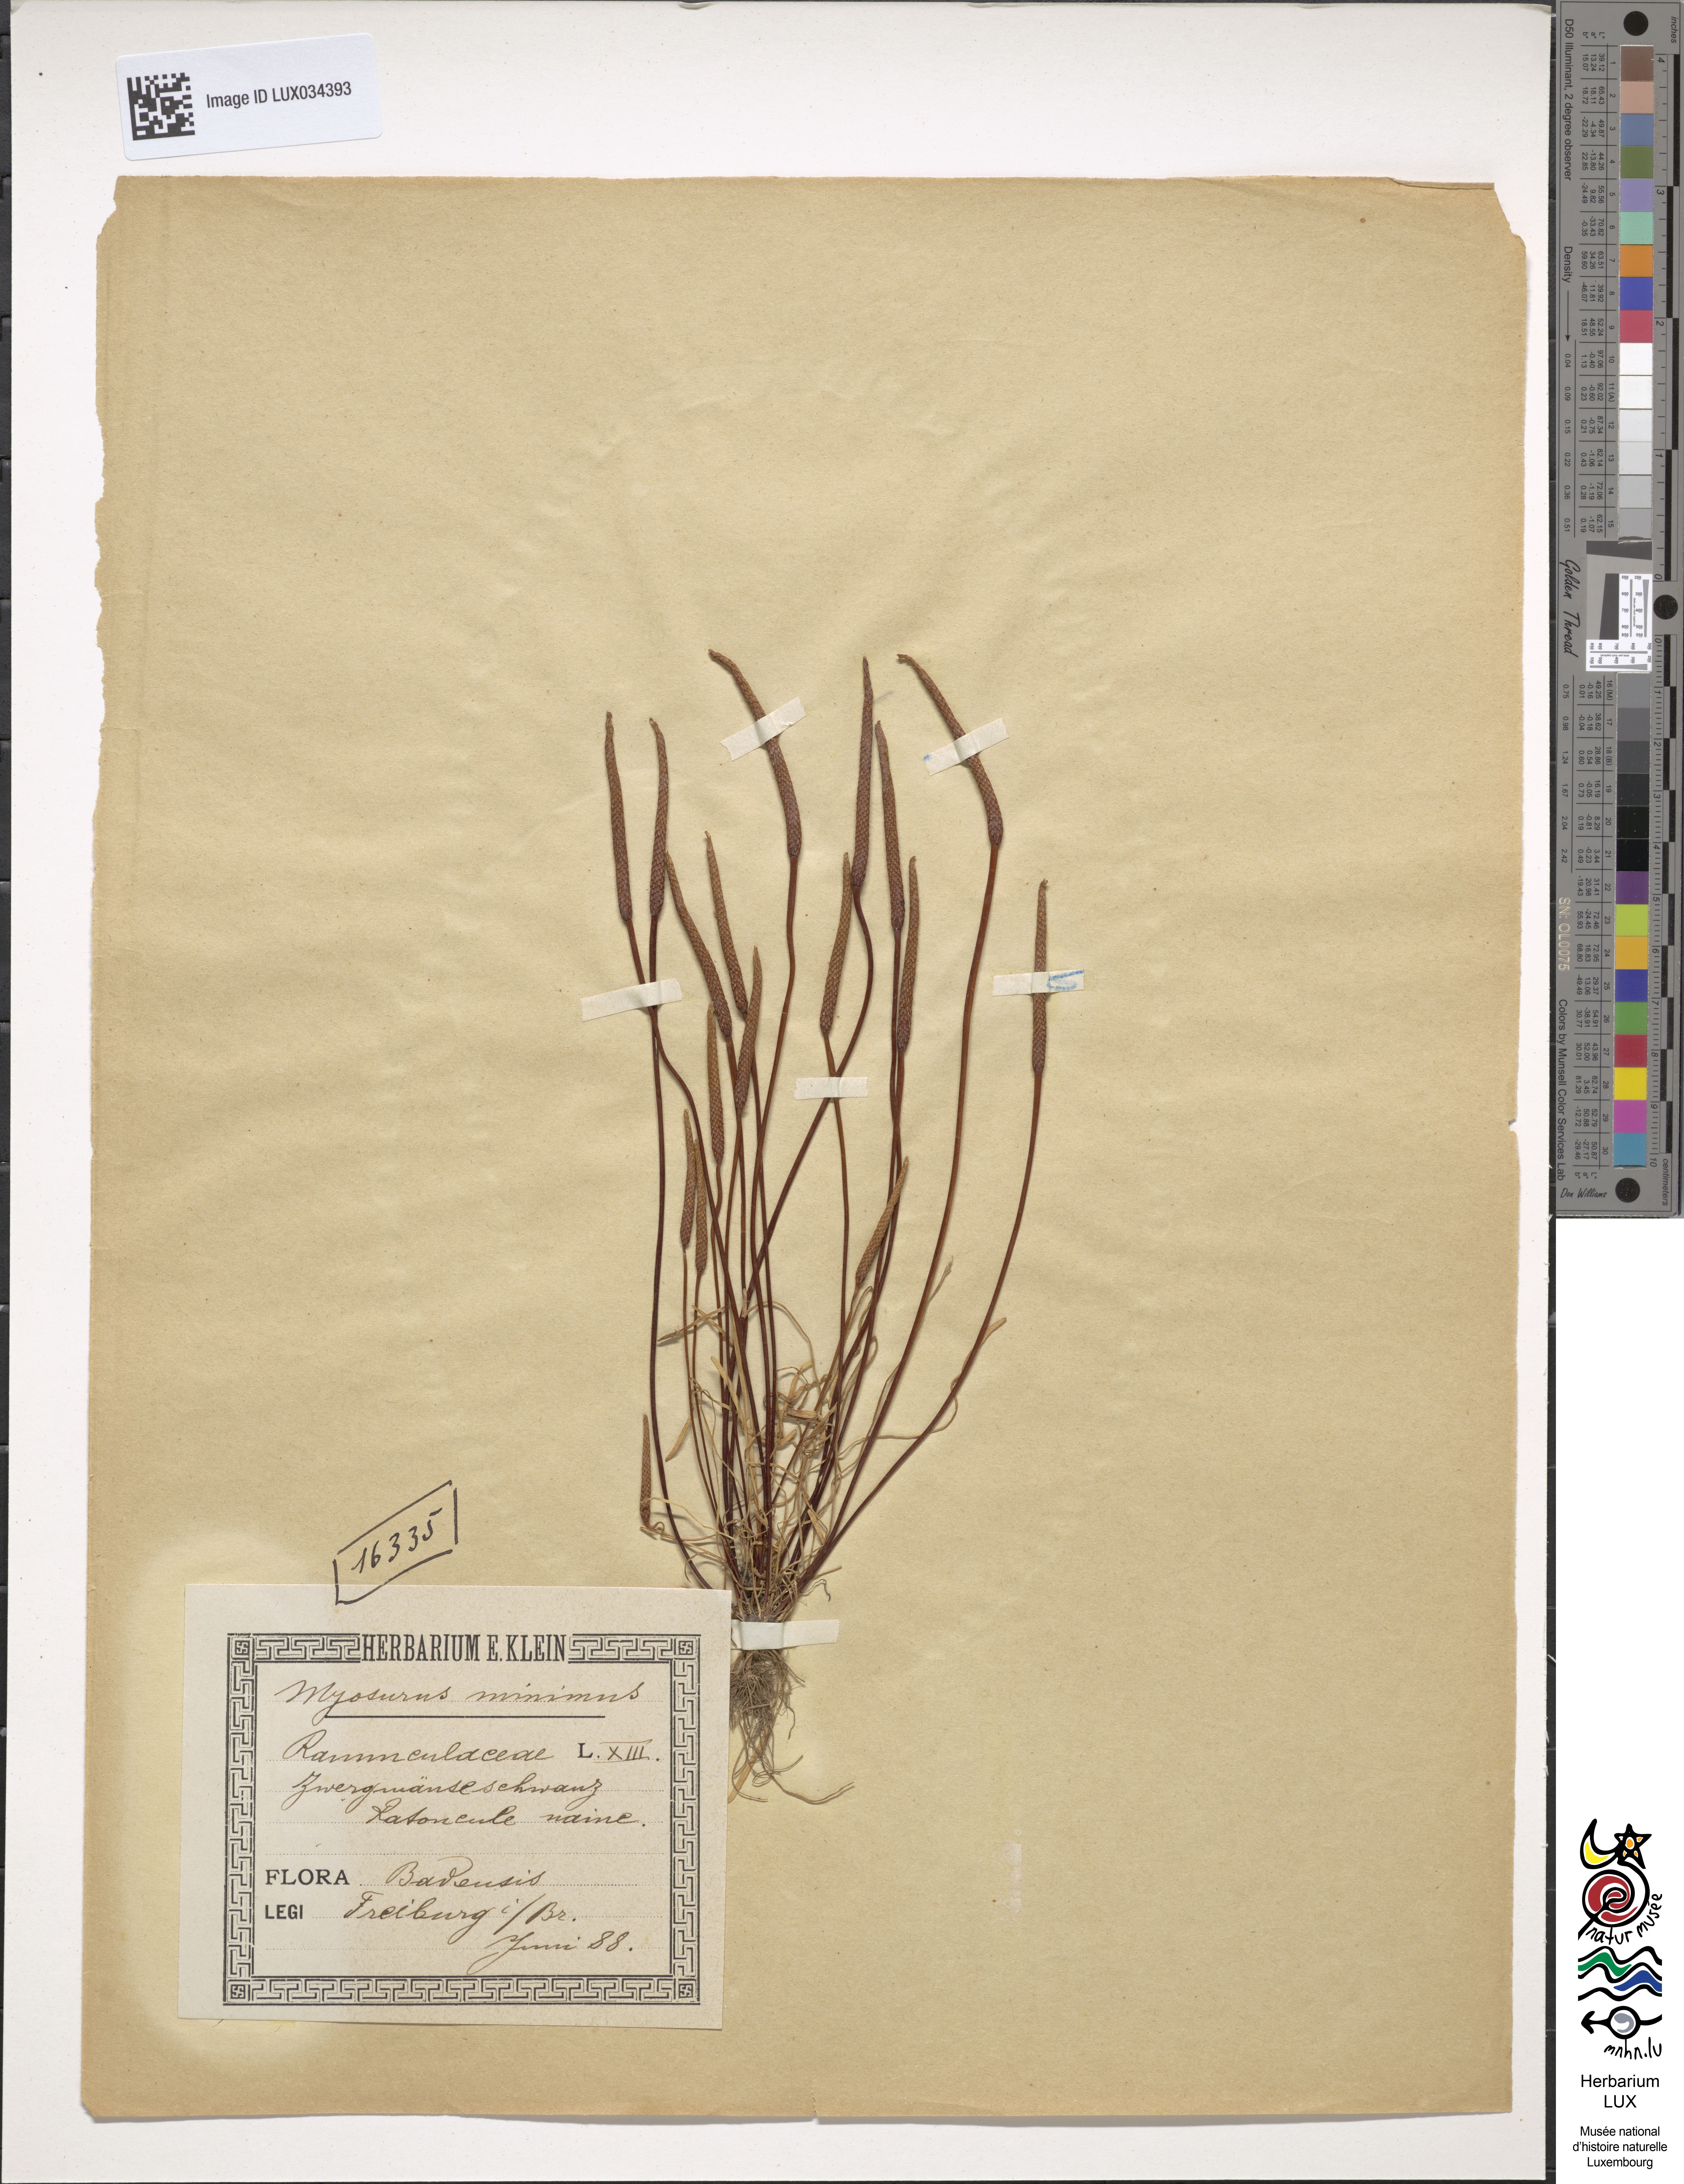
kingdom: Plantae
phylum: Tracheophyta
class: Magnoliopsida
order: Ranunculales
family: Ranunculaceae
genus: Myosurus
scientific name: Myosurus minimus
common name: Mousetail
